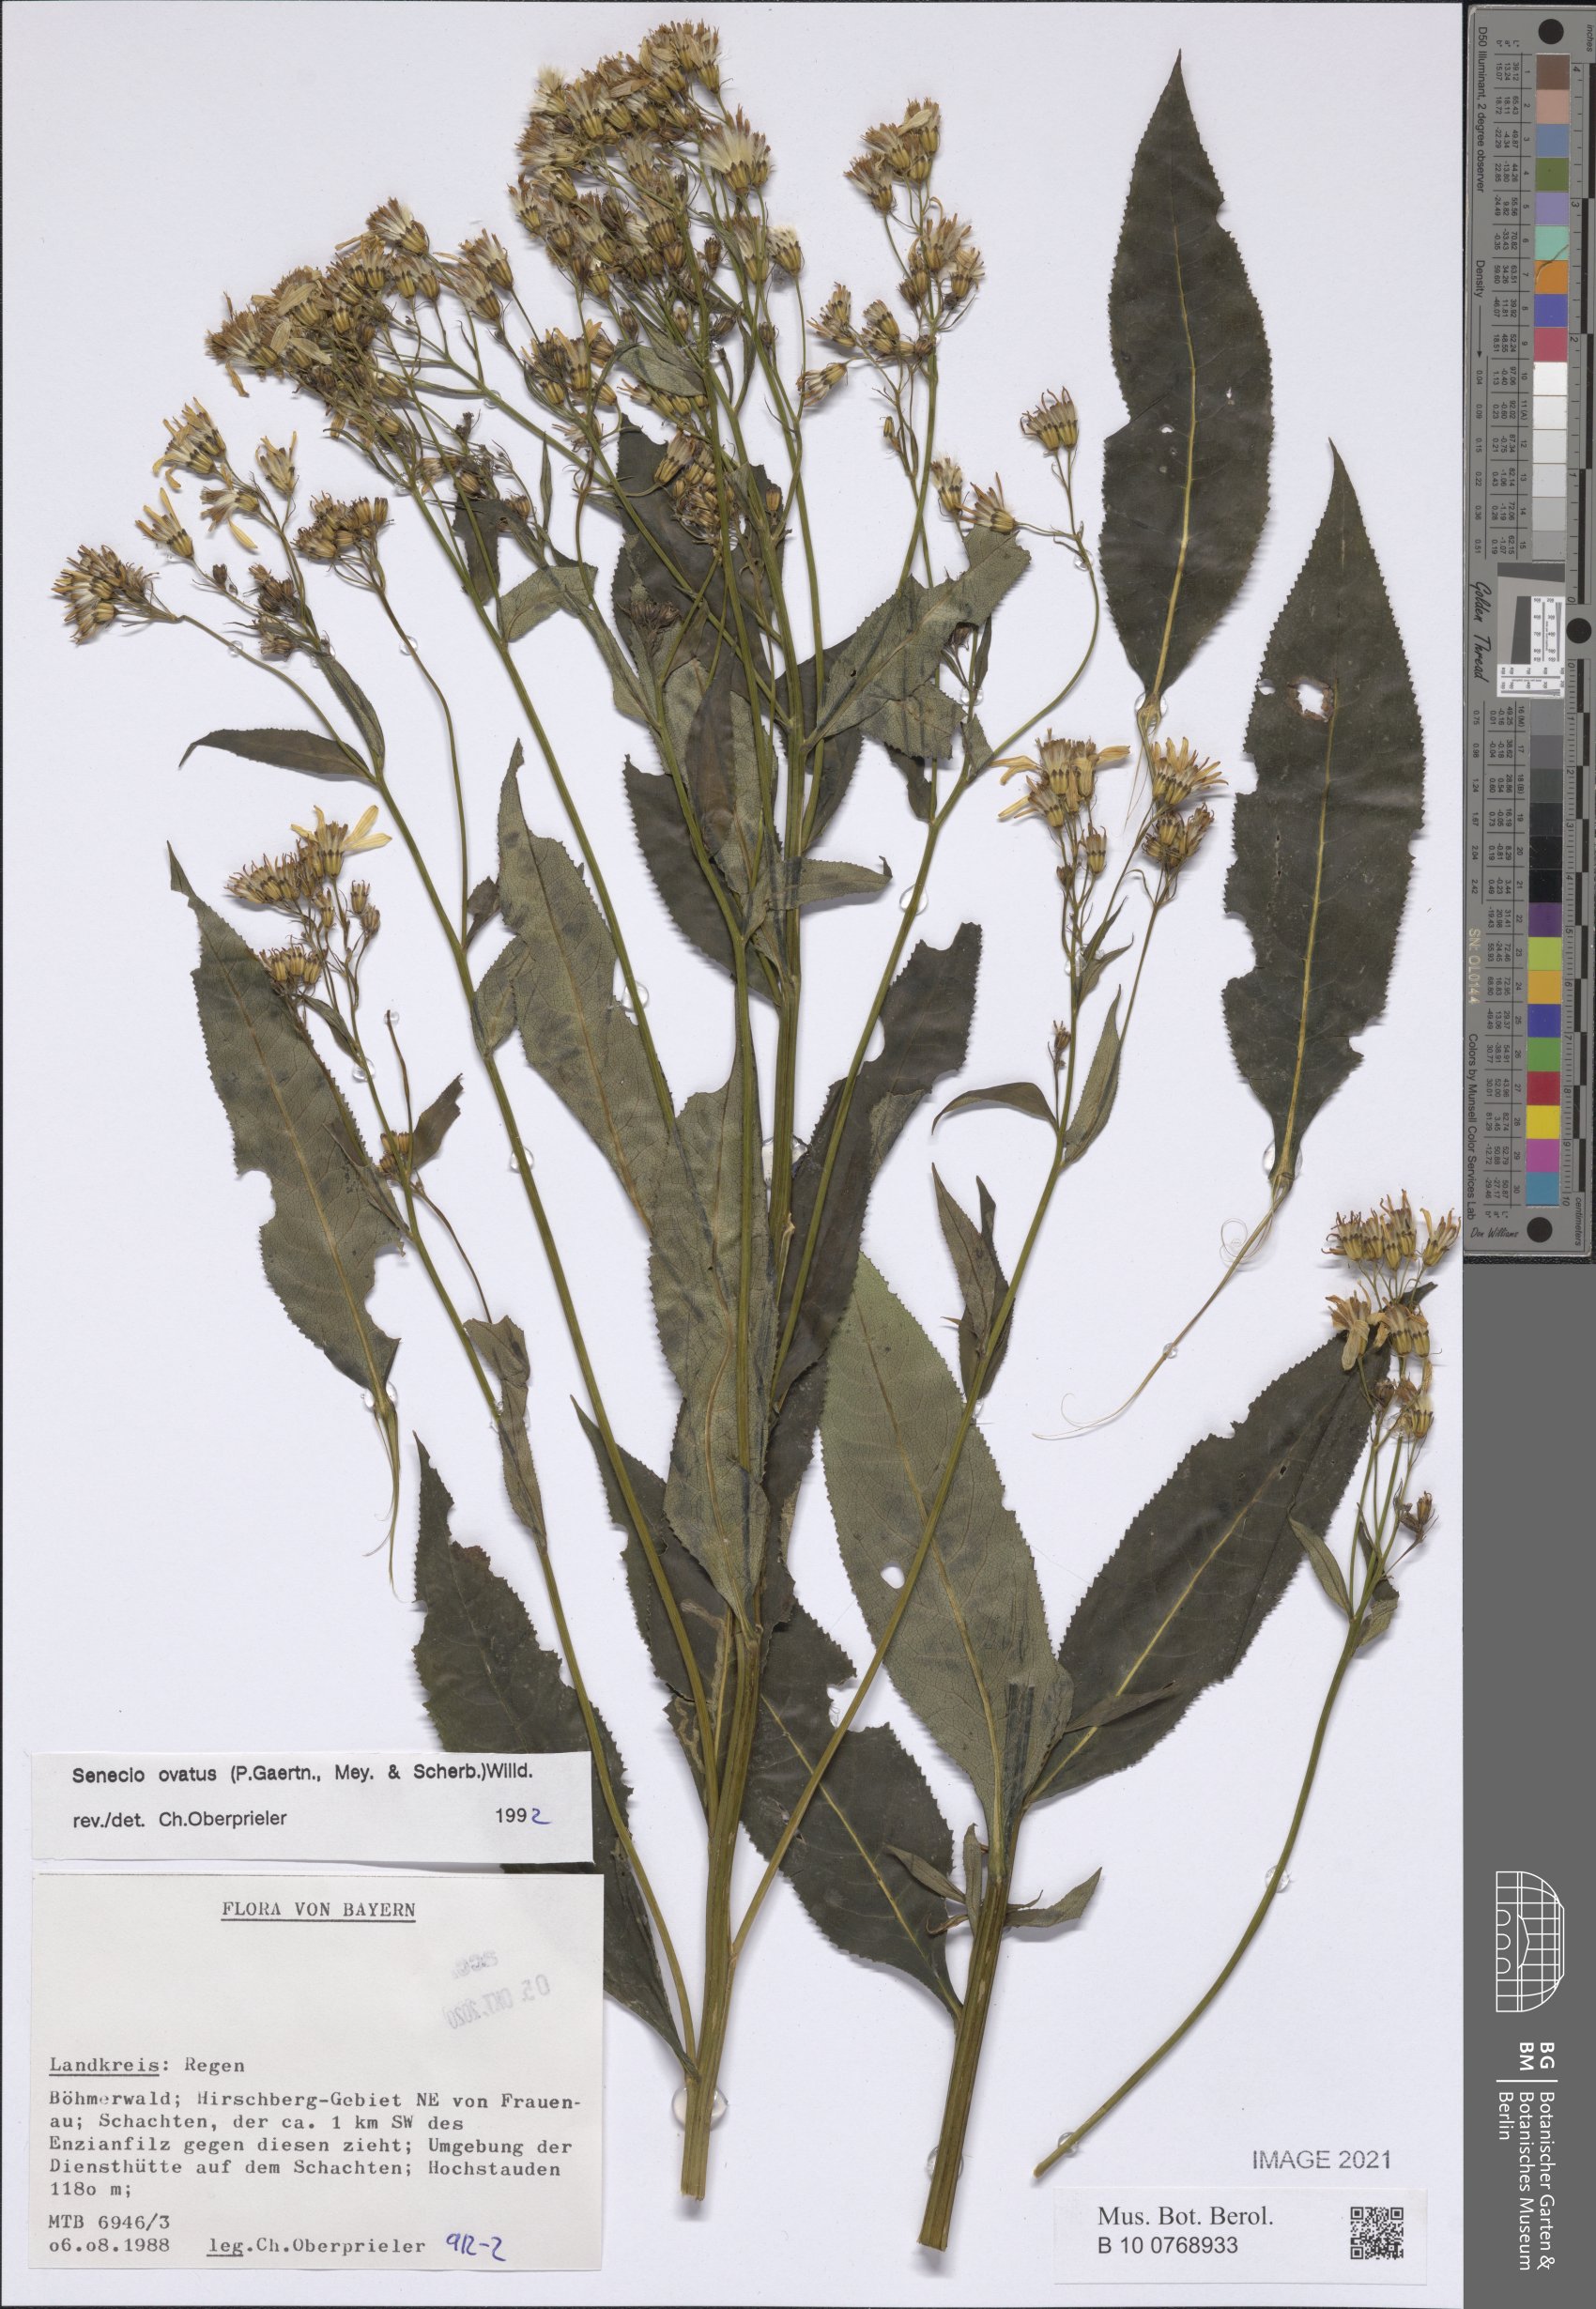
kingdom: Plantae
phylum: Tracheophyta
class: Magnoliopsida
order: Asterales
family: Asteraceae
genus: Senecio
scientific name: Senecio ovatus
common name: Wood ragwort
